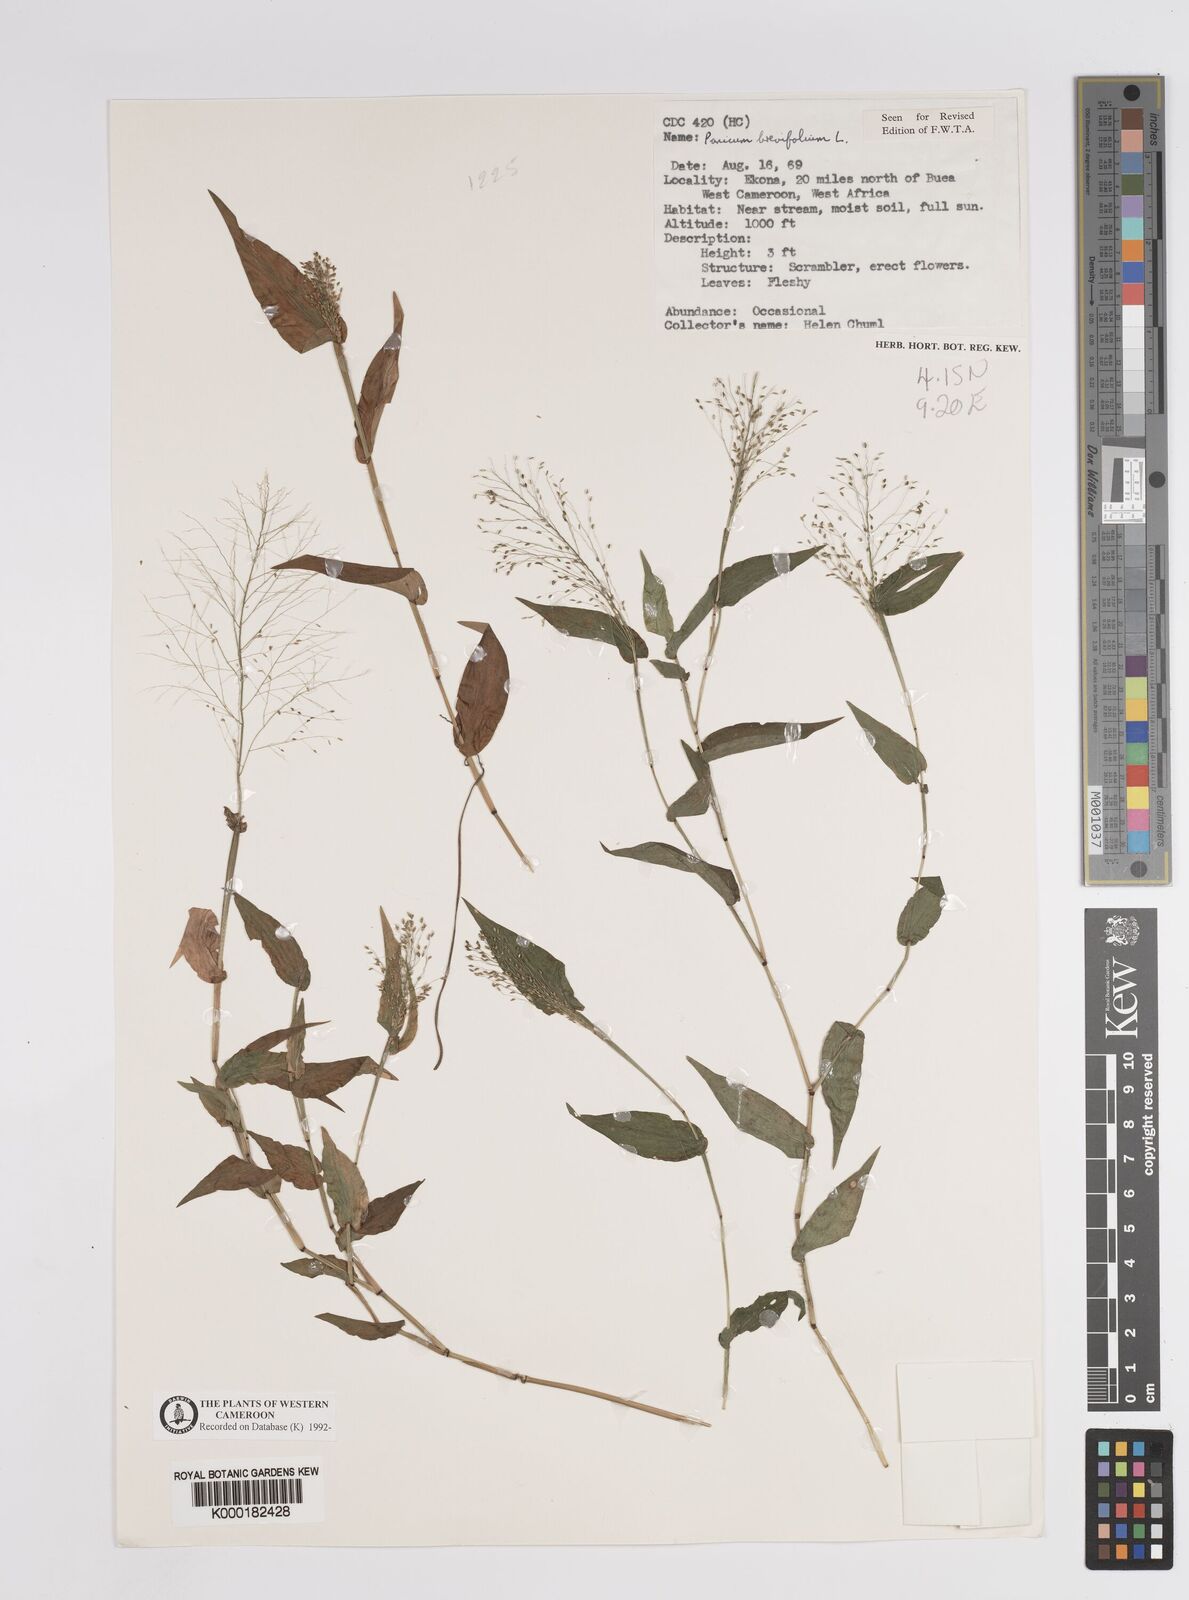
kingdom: Plantae
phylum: Tracheophyta
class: Liliopsida
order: Poales
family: Poaceae
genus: Panicum
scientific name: Panicum brevifolium
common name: Shortleaf panic grass
